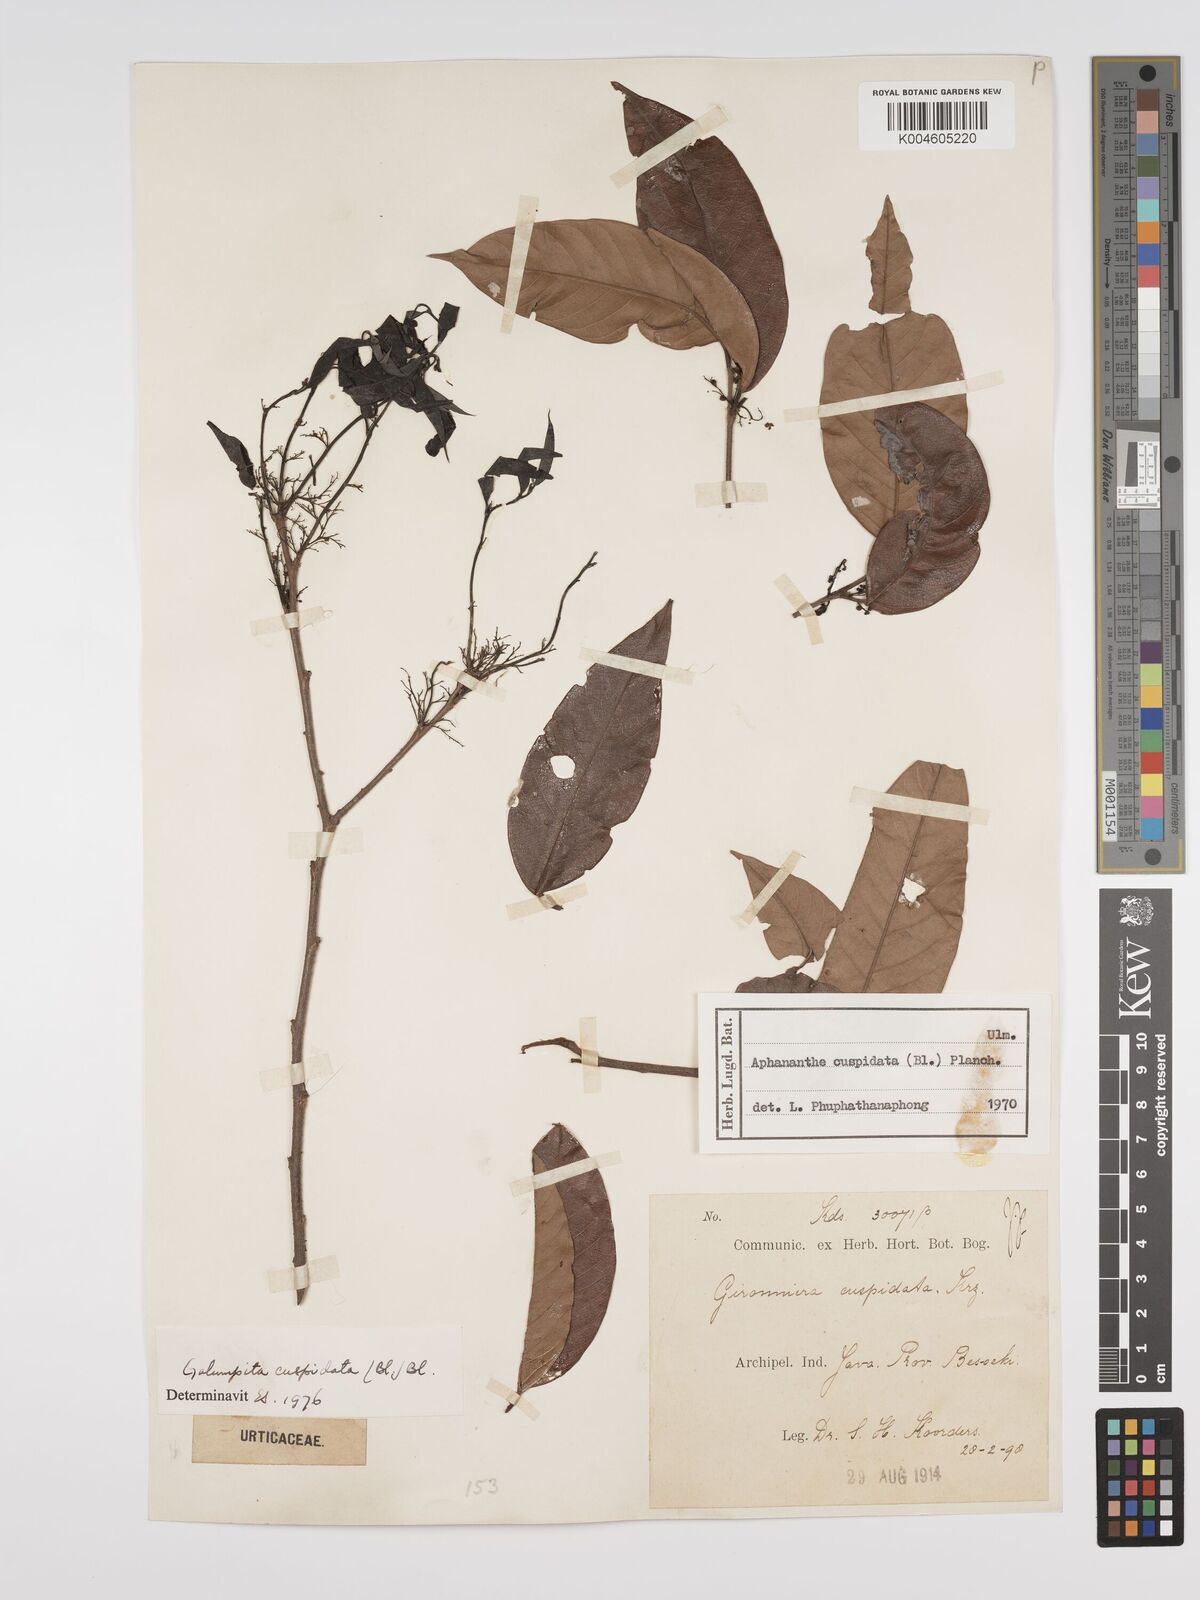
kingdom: Plantae
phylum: Tracheophyta
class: Magnoliopsida
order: Rosales
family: Cannabaceae
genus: Aphananthe
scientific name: Aphananthe cuspidata
